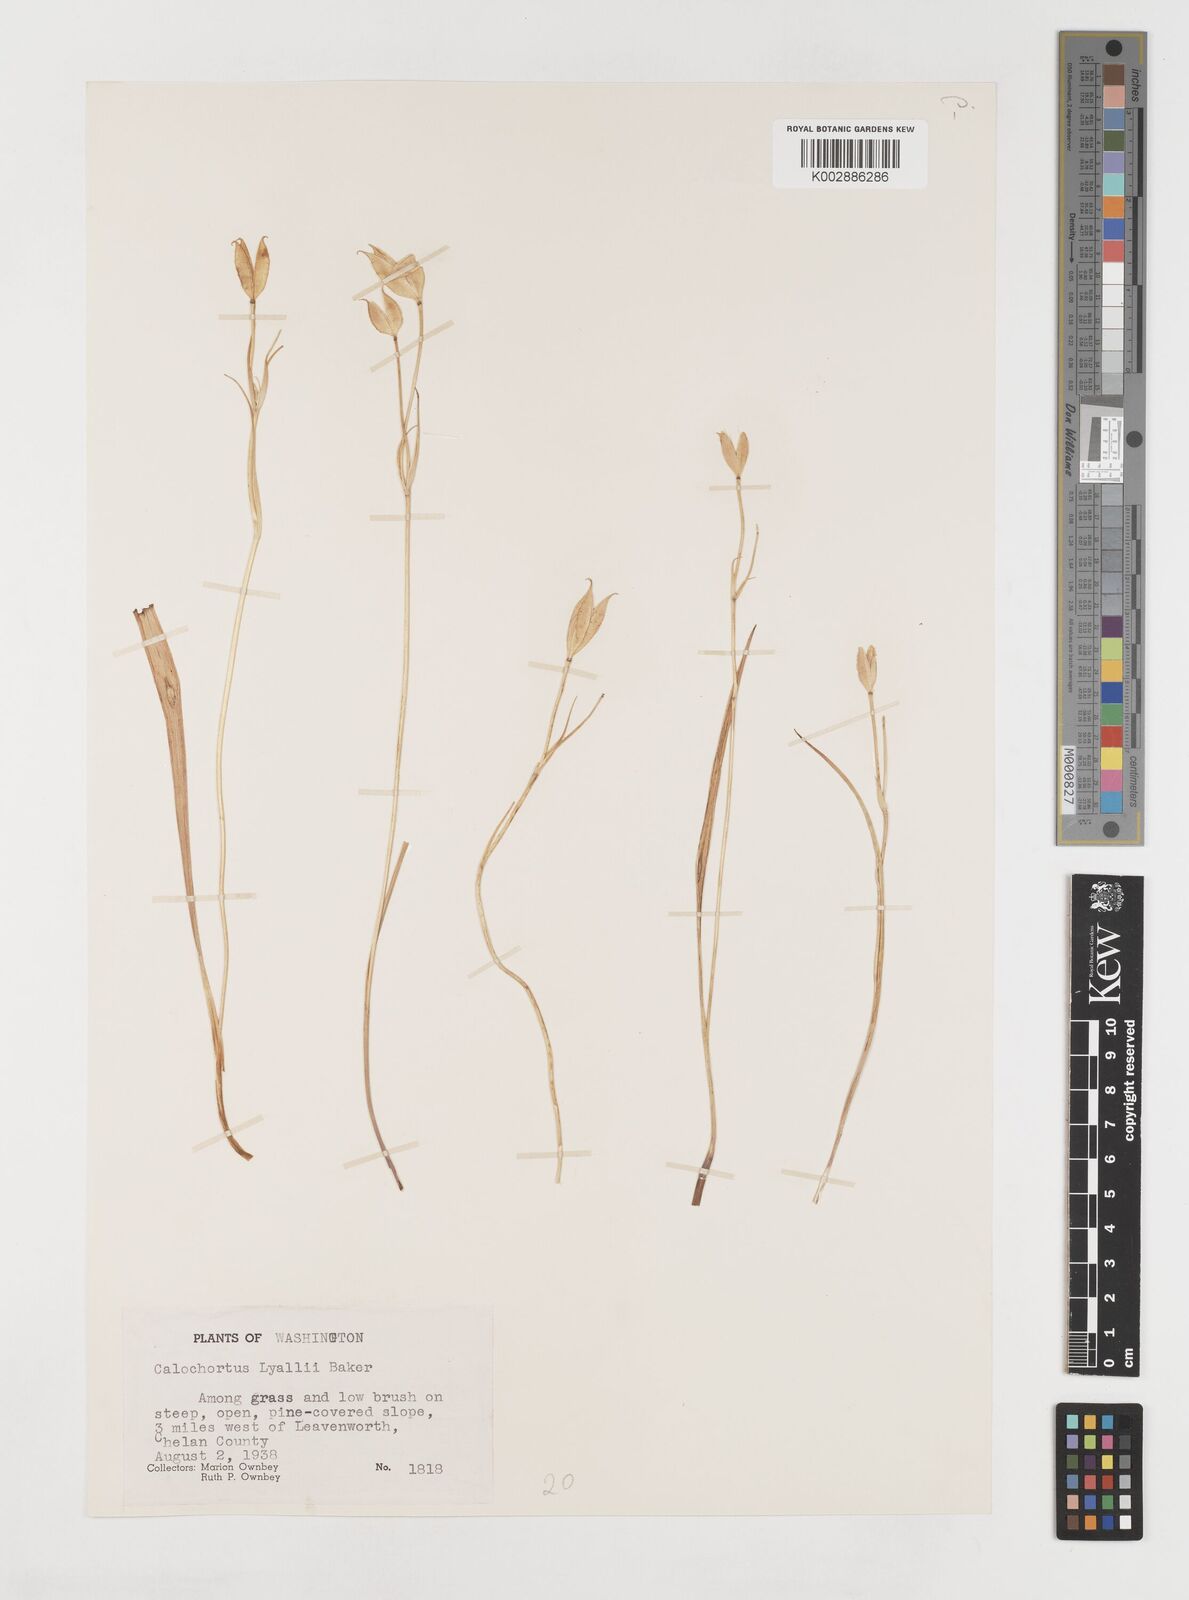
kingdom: Plantae
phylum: Tracheophyta
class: Liliopsida
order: Liliales
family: Liliaceae
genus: Calochortus
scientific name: Calochortus lyallii
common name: Lyall's mariposa lily
